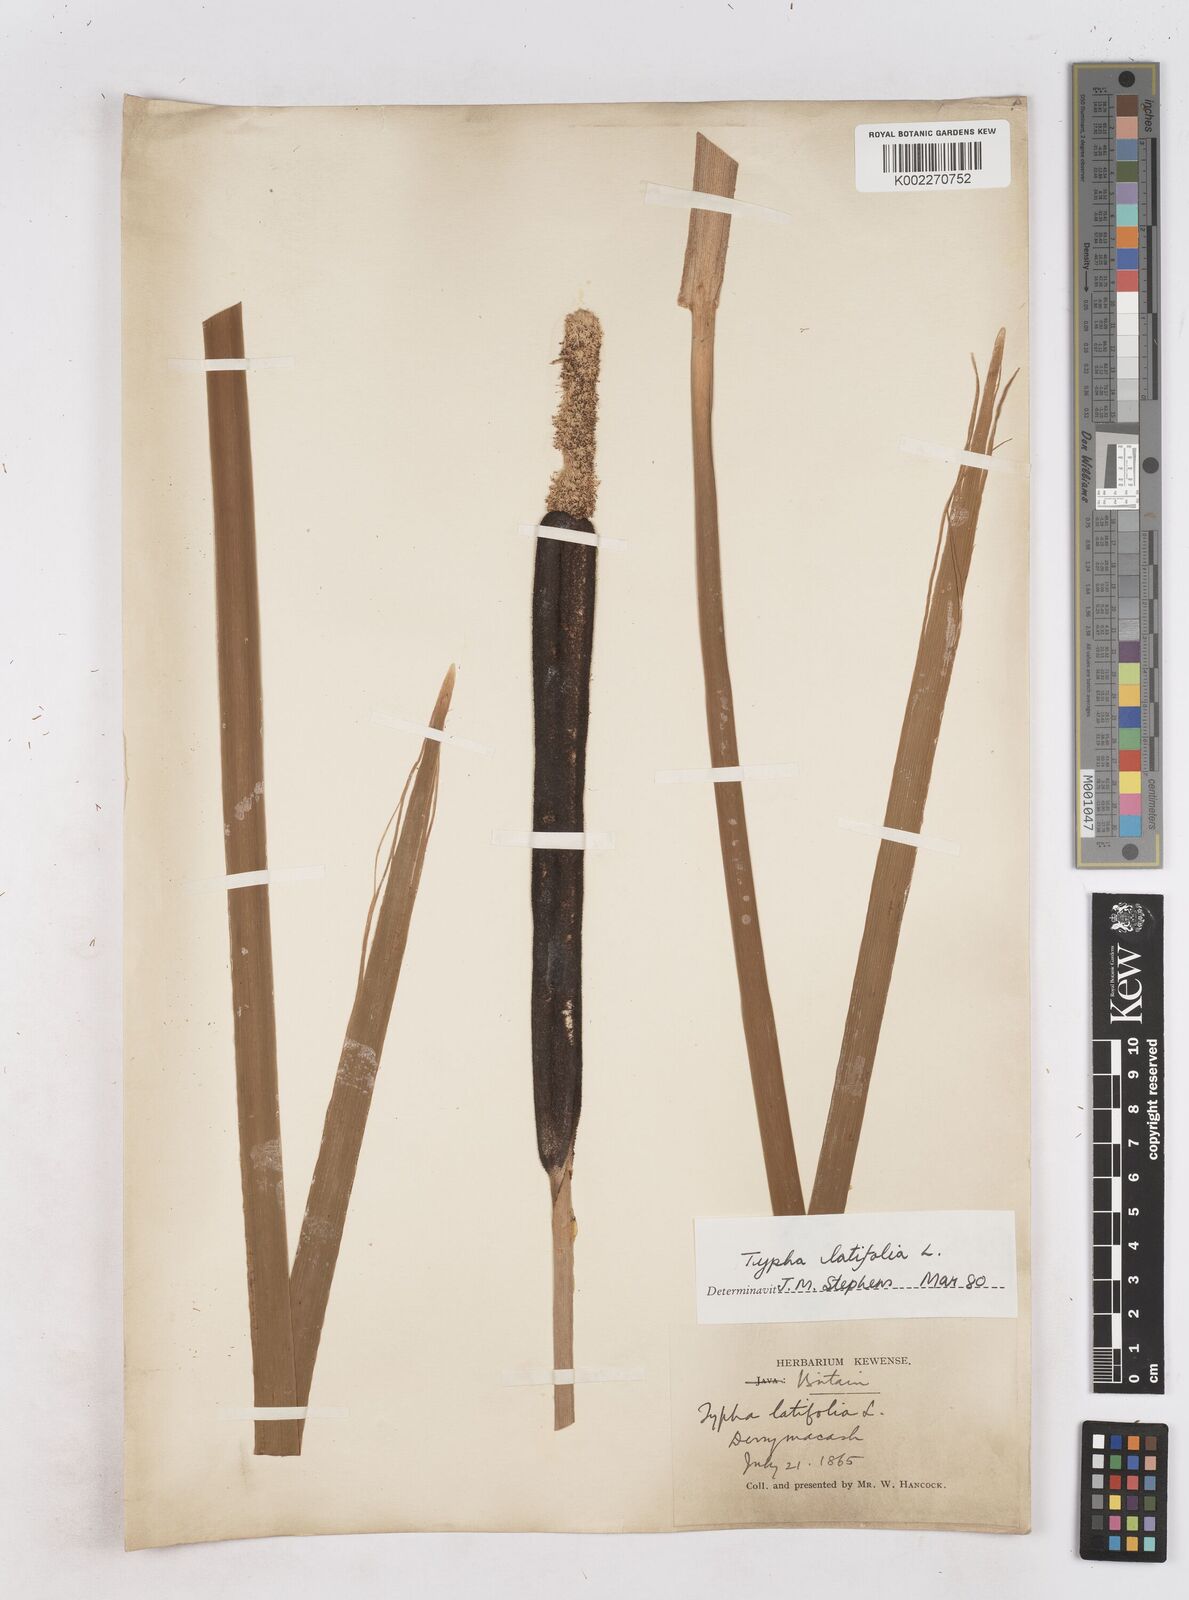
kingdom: Plantae
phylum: Tracheophyta
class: Liliopsida
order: Poales
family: Typhaceae
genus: Typha
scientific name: Typha latifolia
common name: Broadleaf cattail
